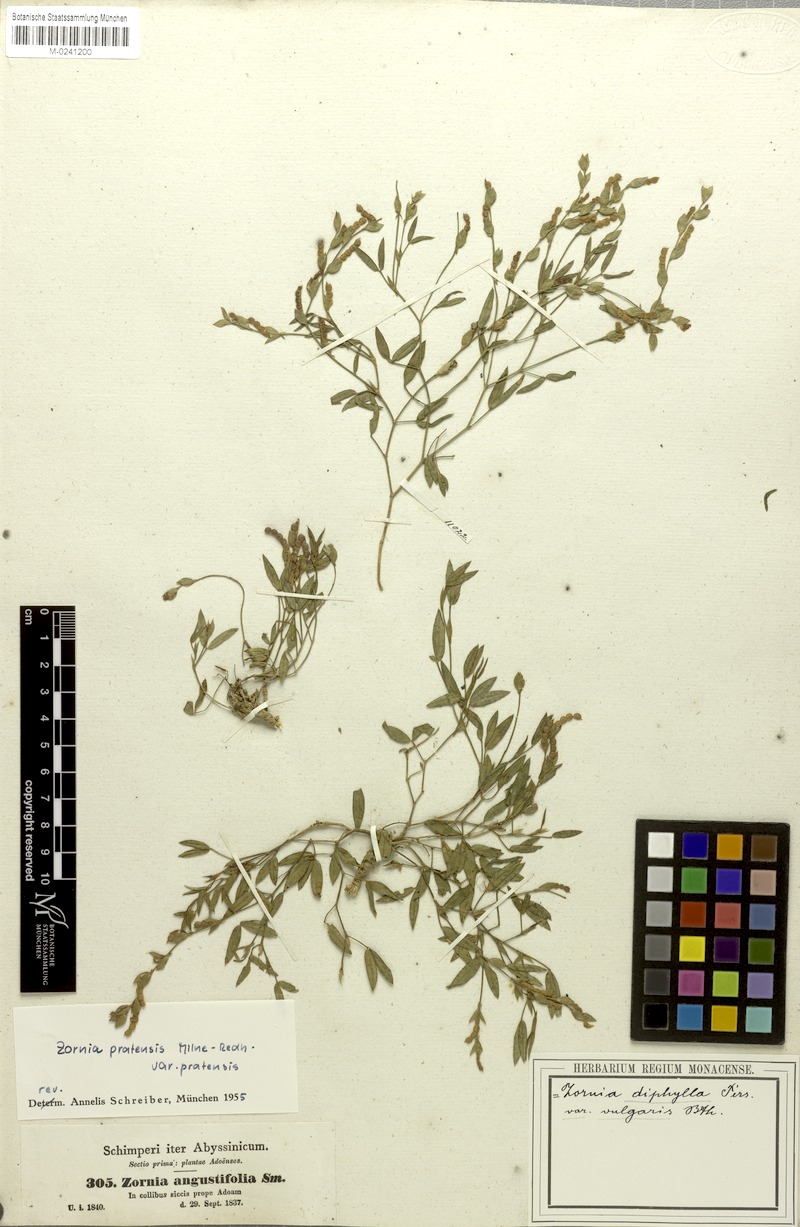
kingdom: Plantae
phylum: Tracheophyta
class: Magnoliopsida
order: Fabales
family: Fabaceae
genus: Zornia
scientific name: Zornia pratensis
